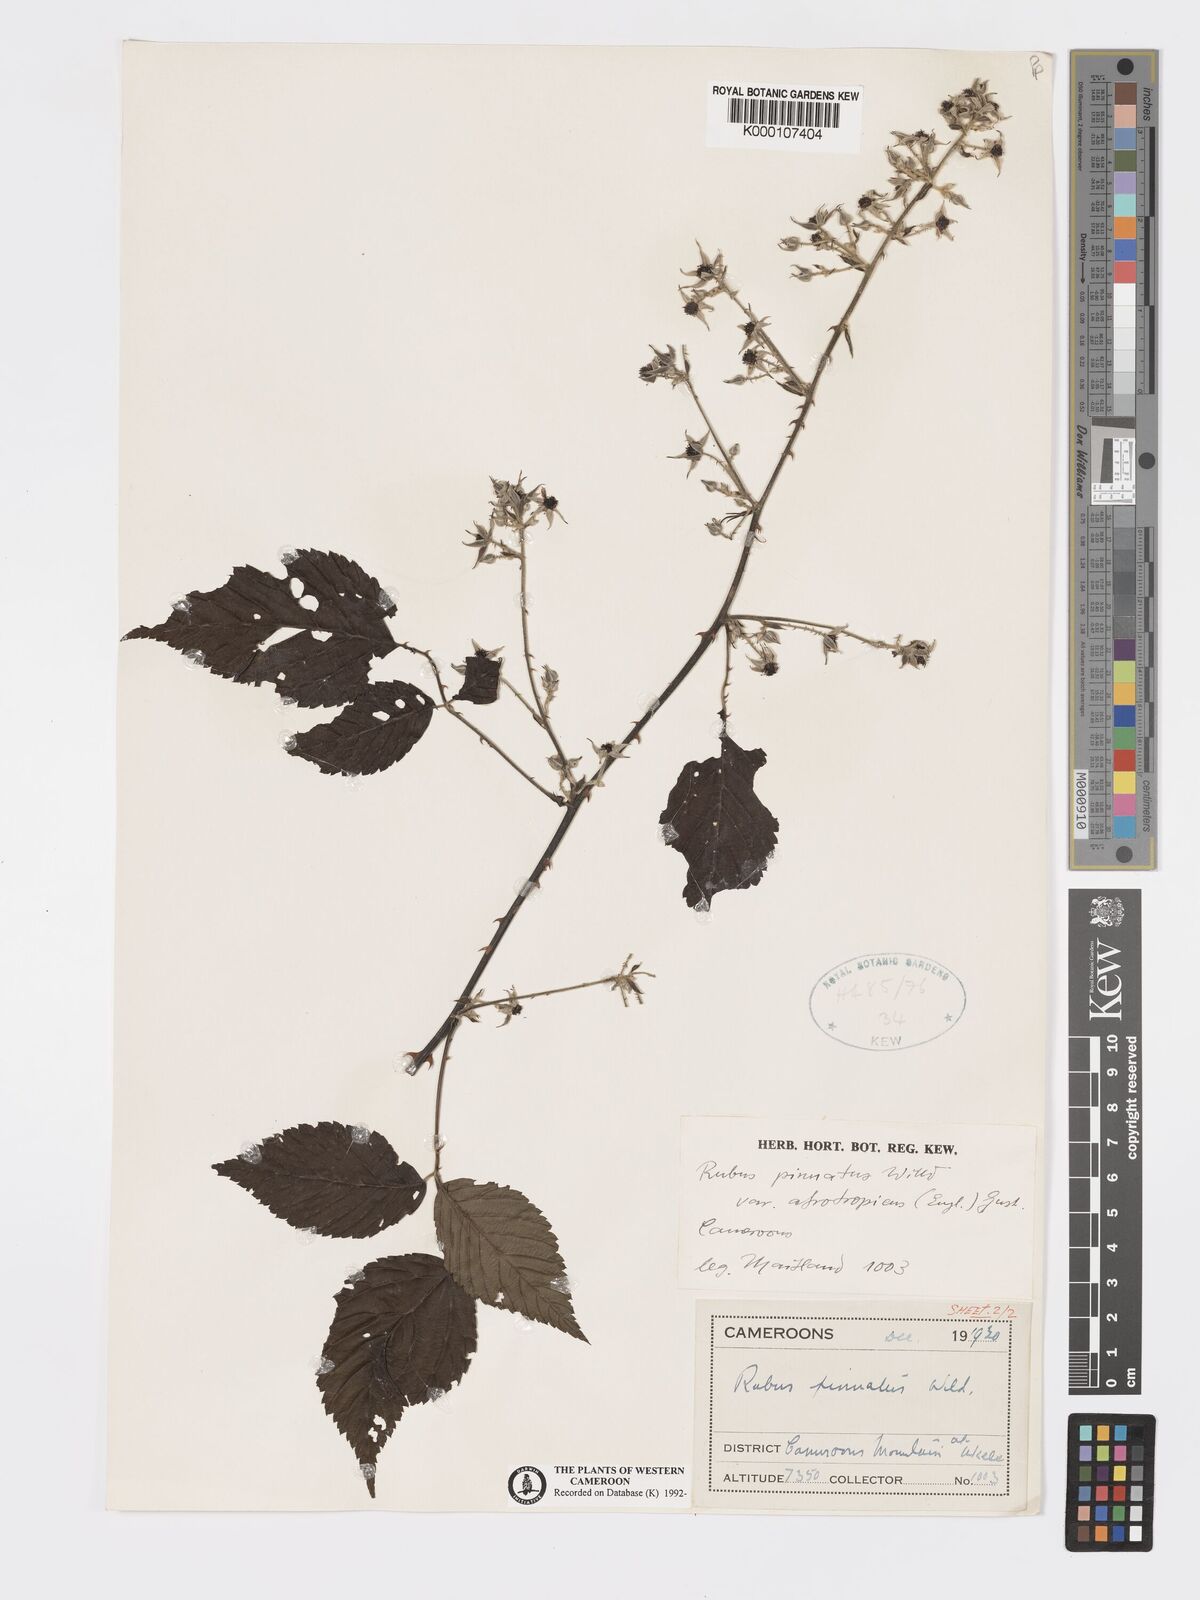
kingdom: Plantae
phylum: Tracheophyta
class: Magnoliopsida
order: Rosales
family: Rosaceae
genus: Rubus
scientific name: Rubus pinnatus
